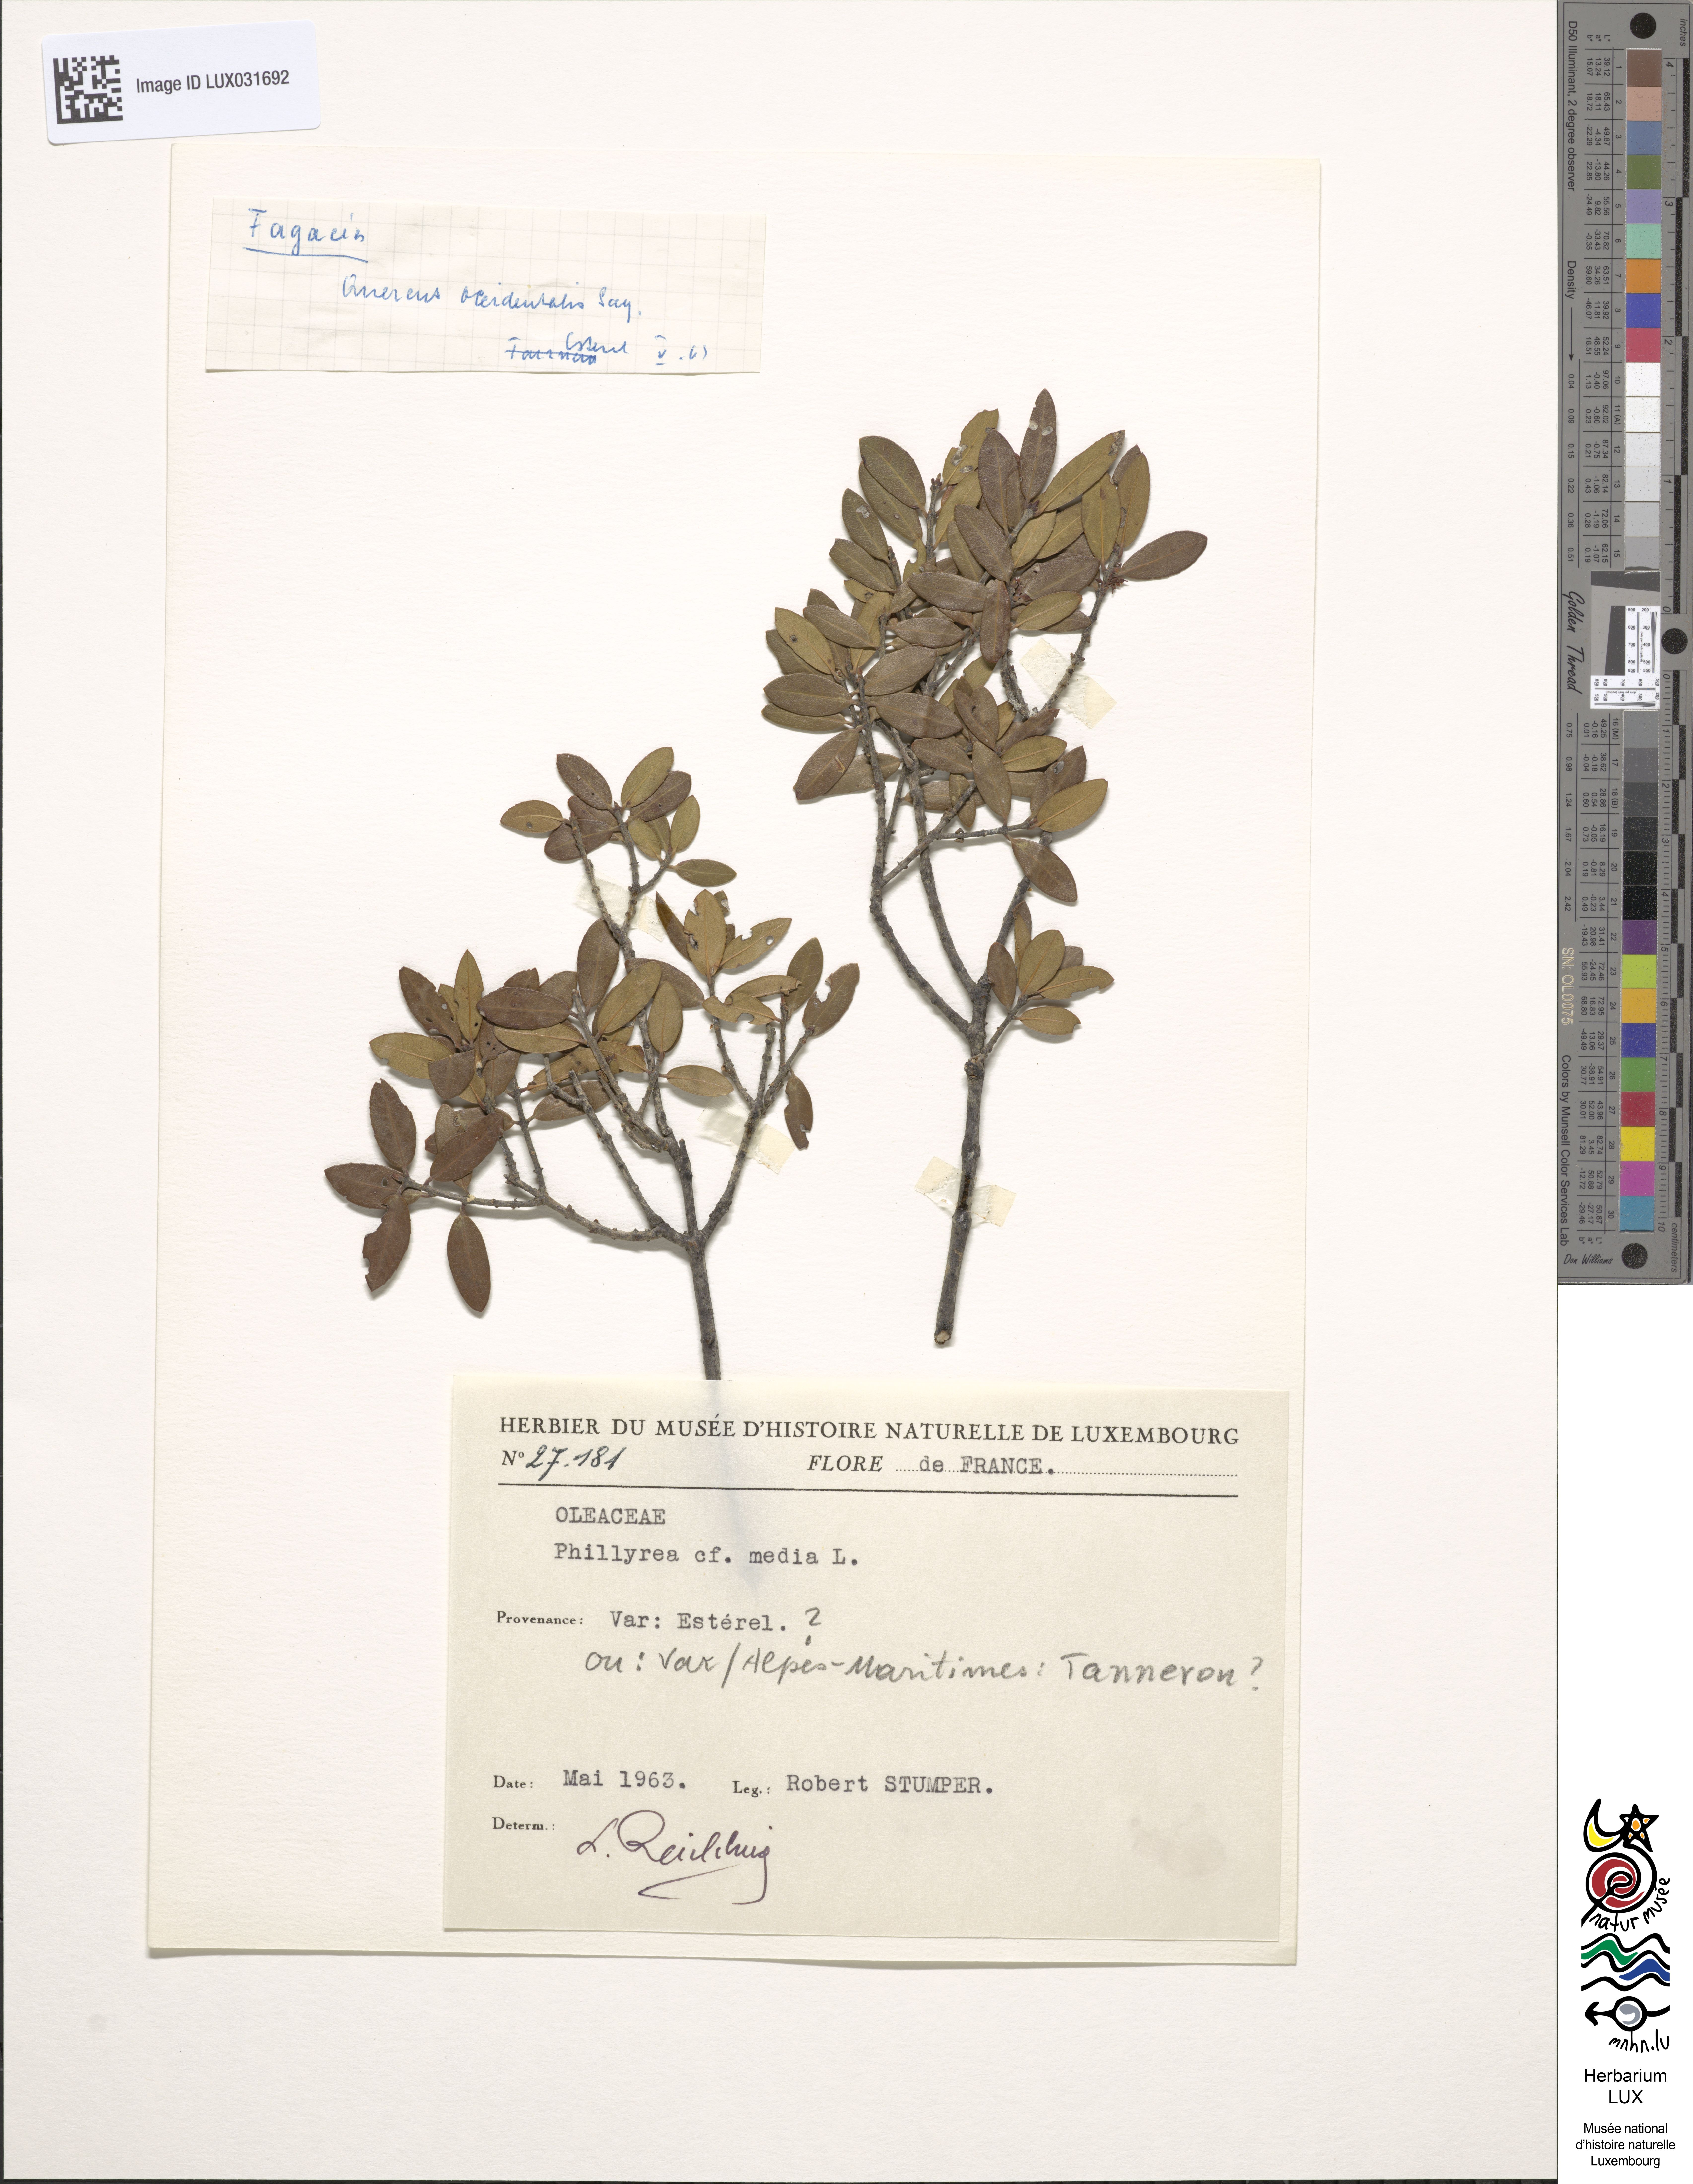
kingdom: Plantae
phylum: Tracheophyta
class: Magnoliopsida
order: Lamiales
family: Oleaceae
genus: Phillyrea
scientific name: Phillyrea latifolia
